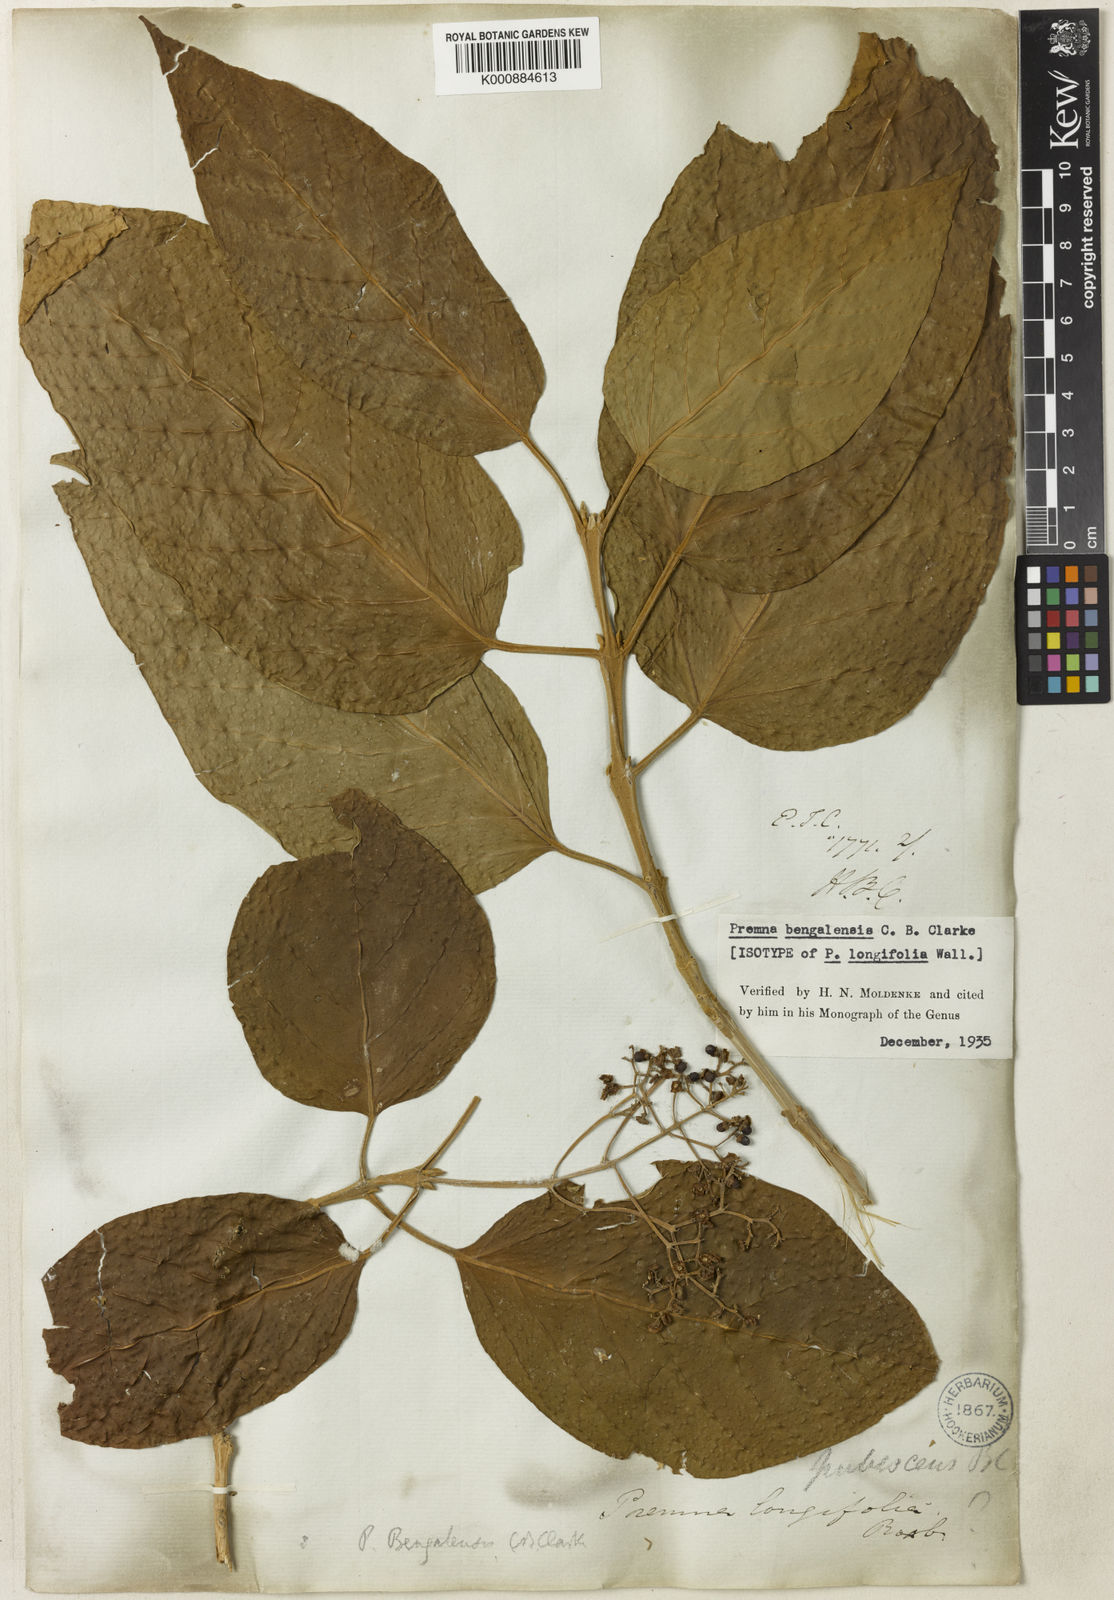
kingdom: Plantae
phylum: Tracheophyta
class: Magnoliopsida
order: Lamiales
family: Lamiaceae
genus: Premna
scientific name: Premna bengalensis
